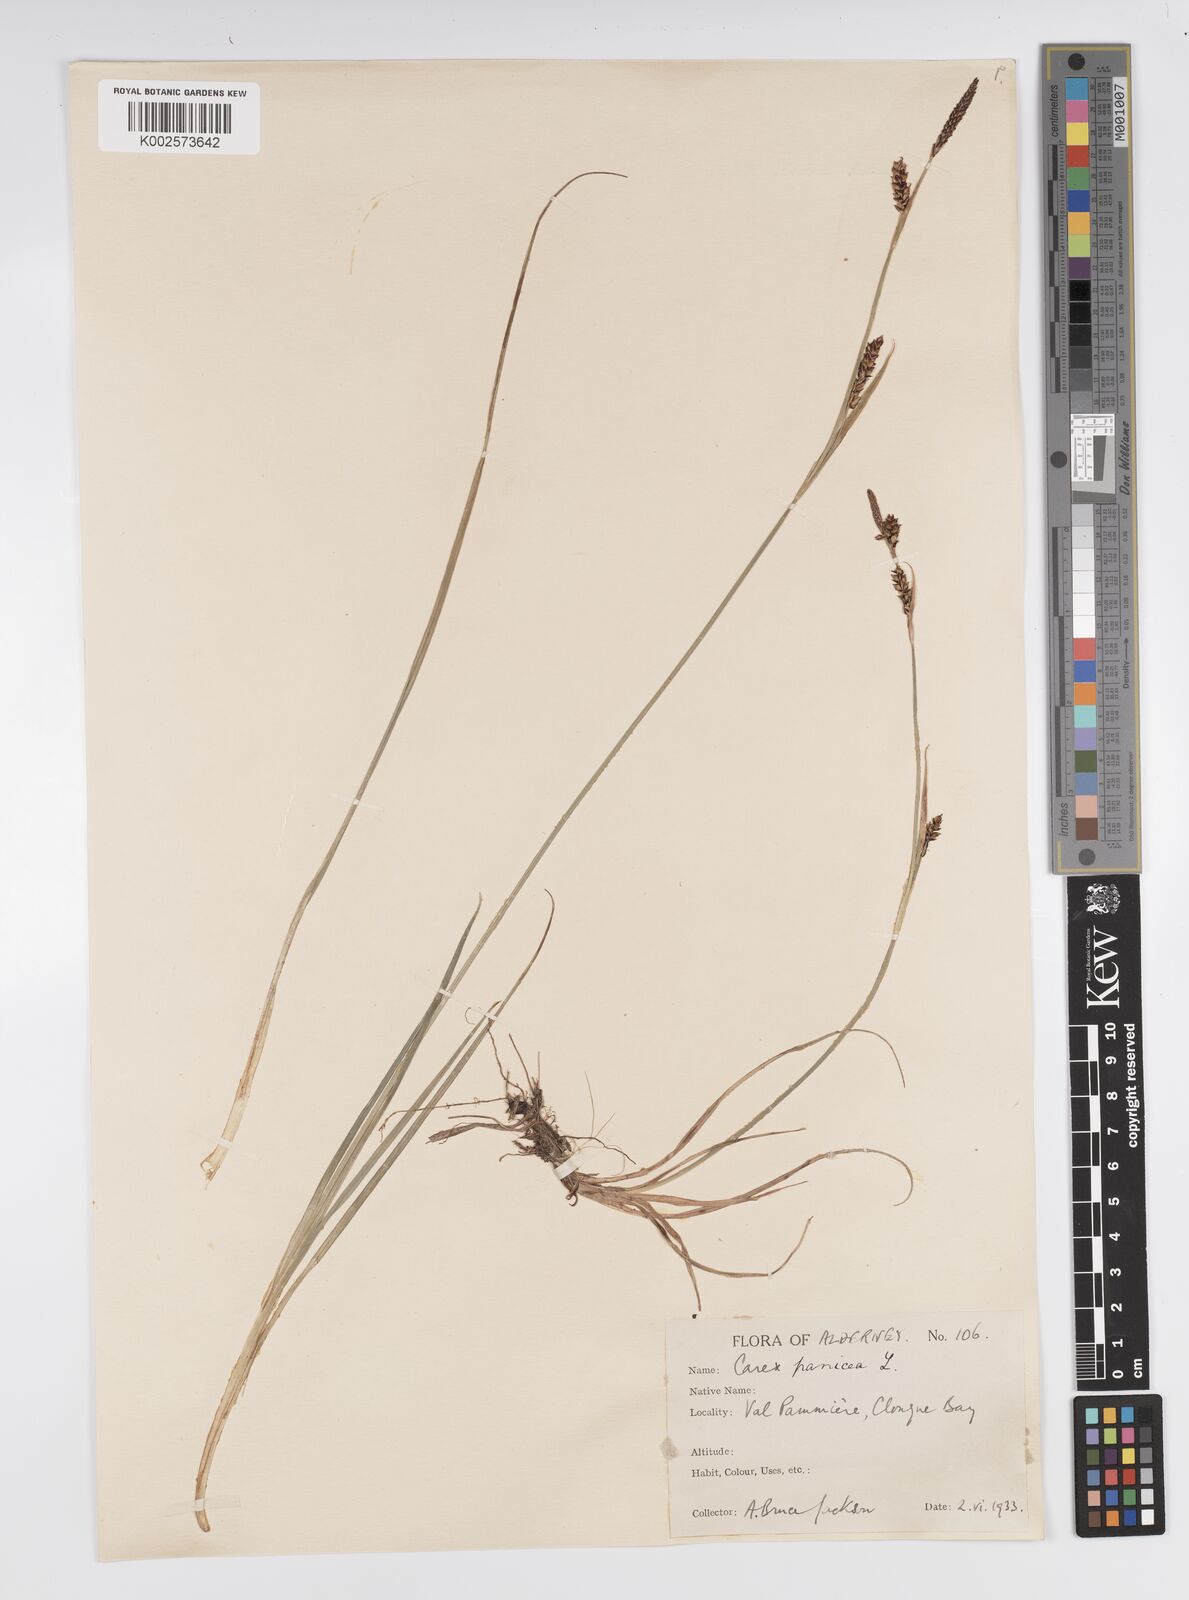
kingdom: Plantae
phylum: Tracheophyta
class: Liliopsida
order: Poales
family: Cyperaceae
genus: Carex
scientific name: Carex panicea
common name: Carnation sedge
